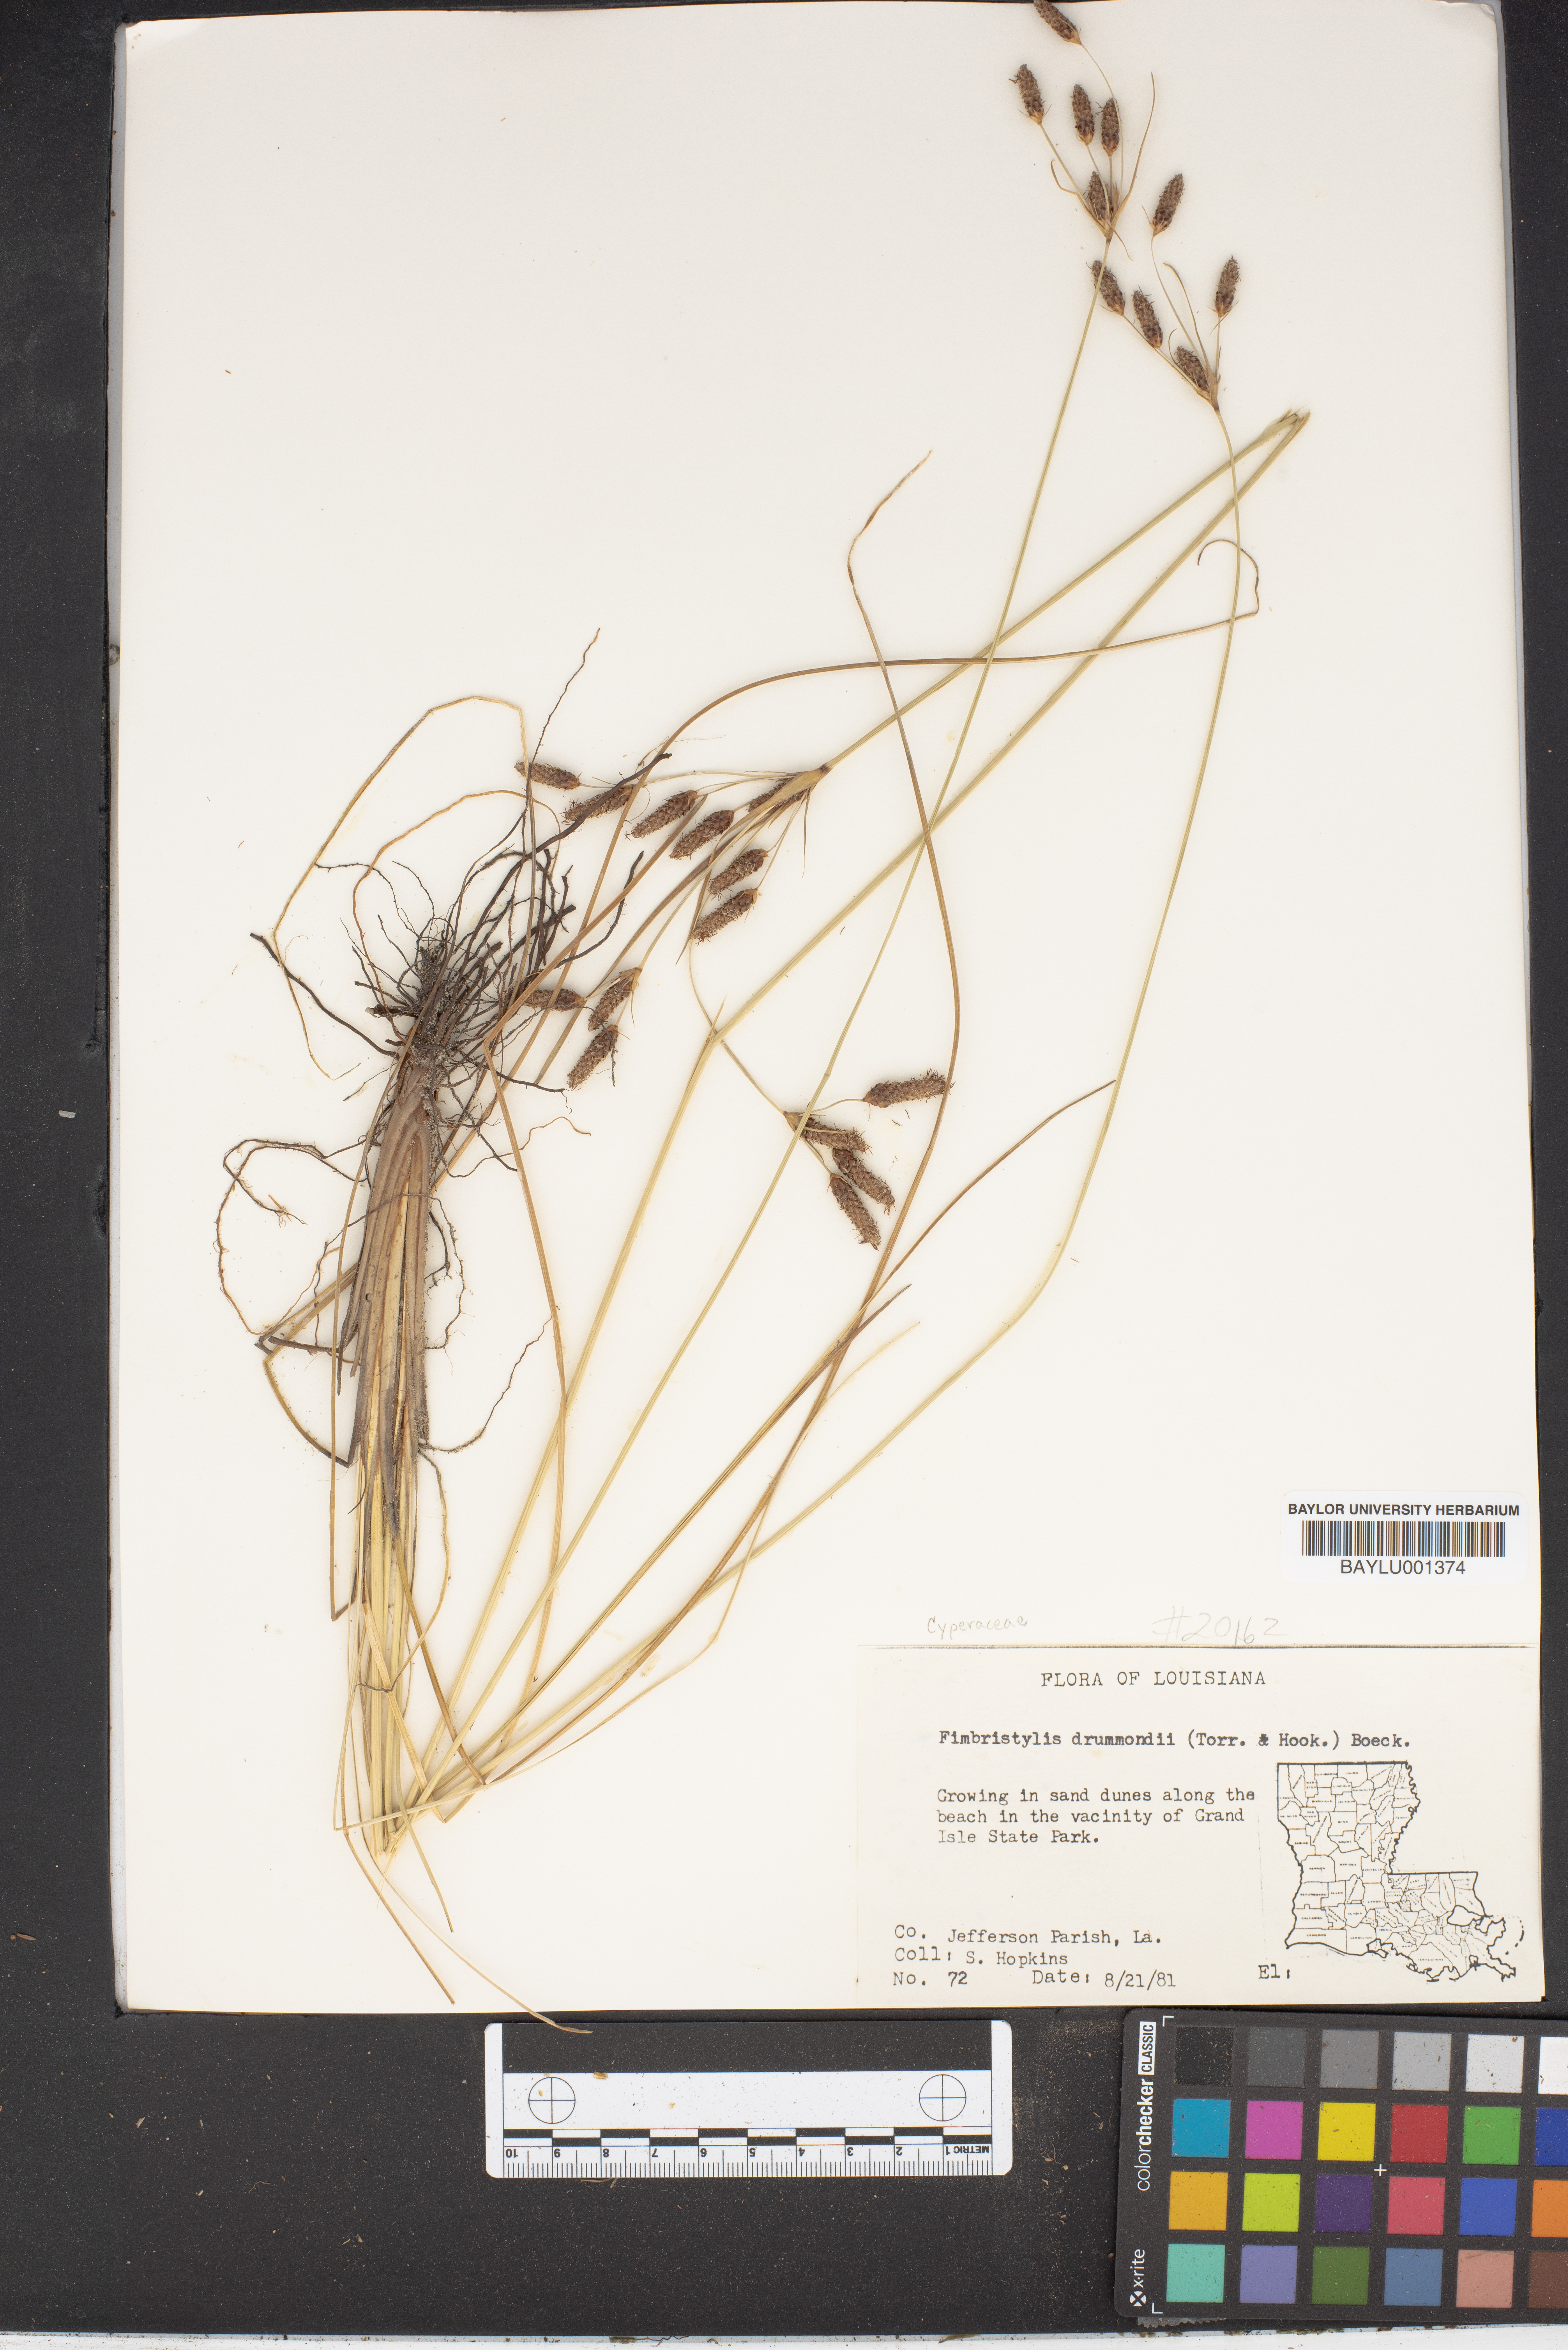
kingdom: Plantae
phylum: Tracheophyta
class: Liliopsida
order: Poales
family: Cyperaceae
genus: Fimbristylis
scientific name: Fimbristylis puberula
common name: Hairy fimbristylis
